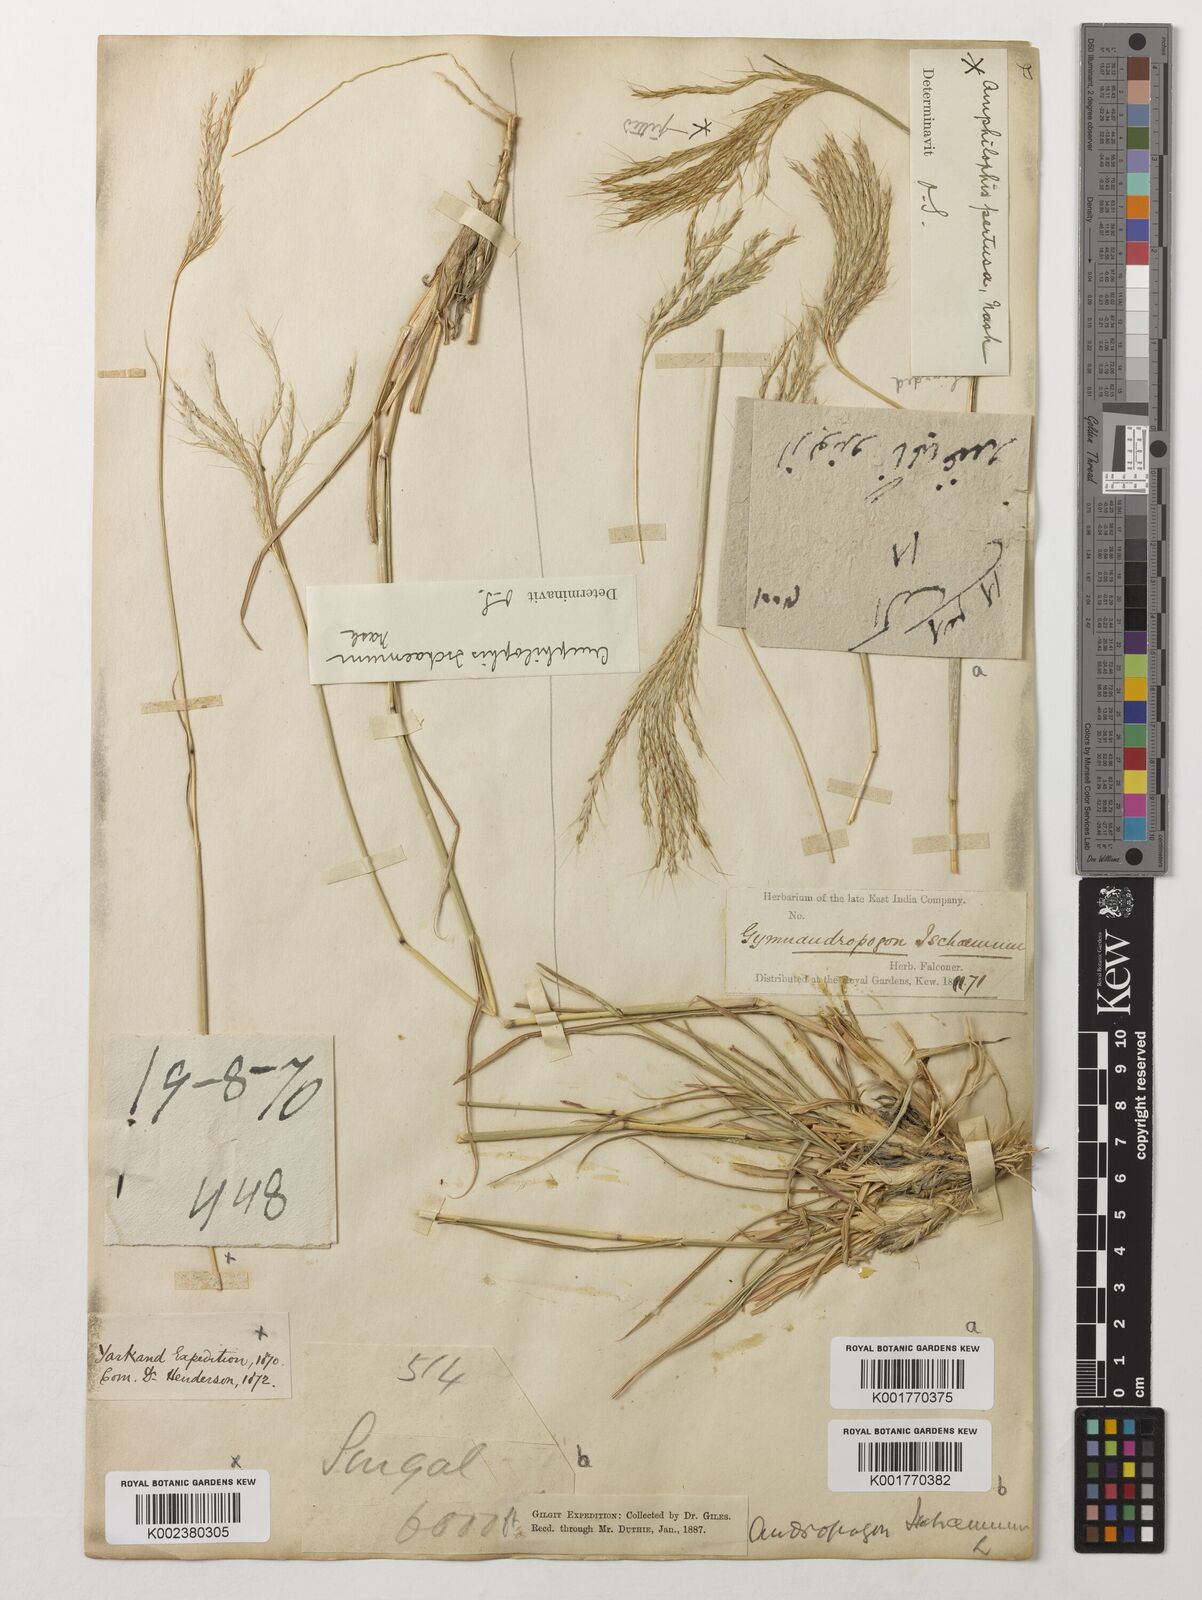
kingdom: Plantae
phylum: Tracheophyta
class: Liliopsida
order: Poales
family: Poaceae
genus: Bothriochloa
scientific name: Bothriochloa ischaemum
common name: Yellow bluestem
